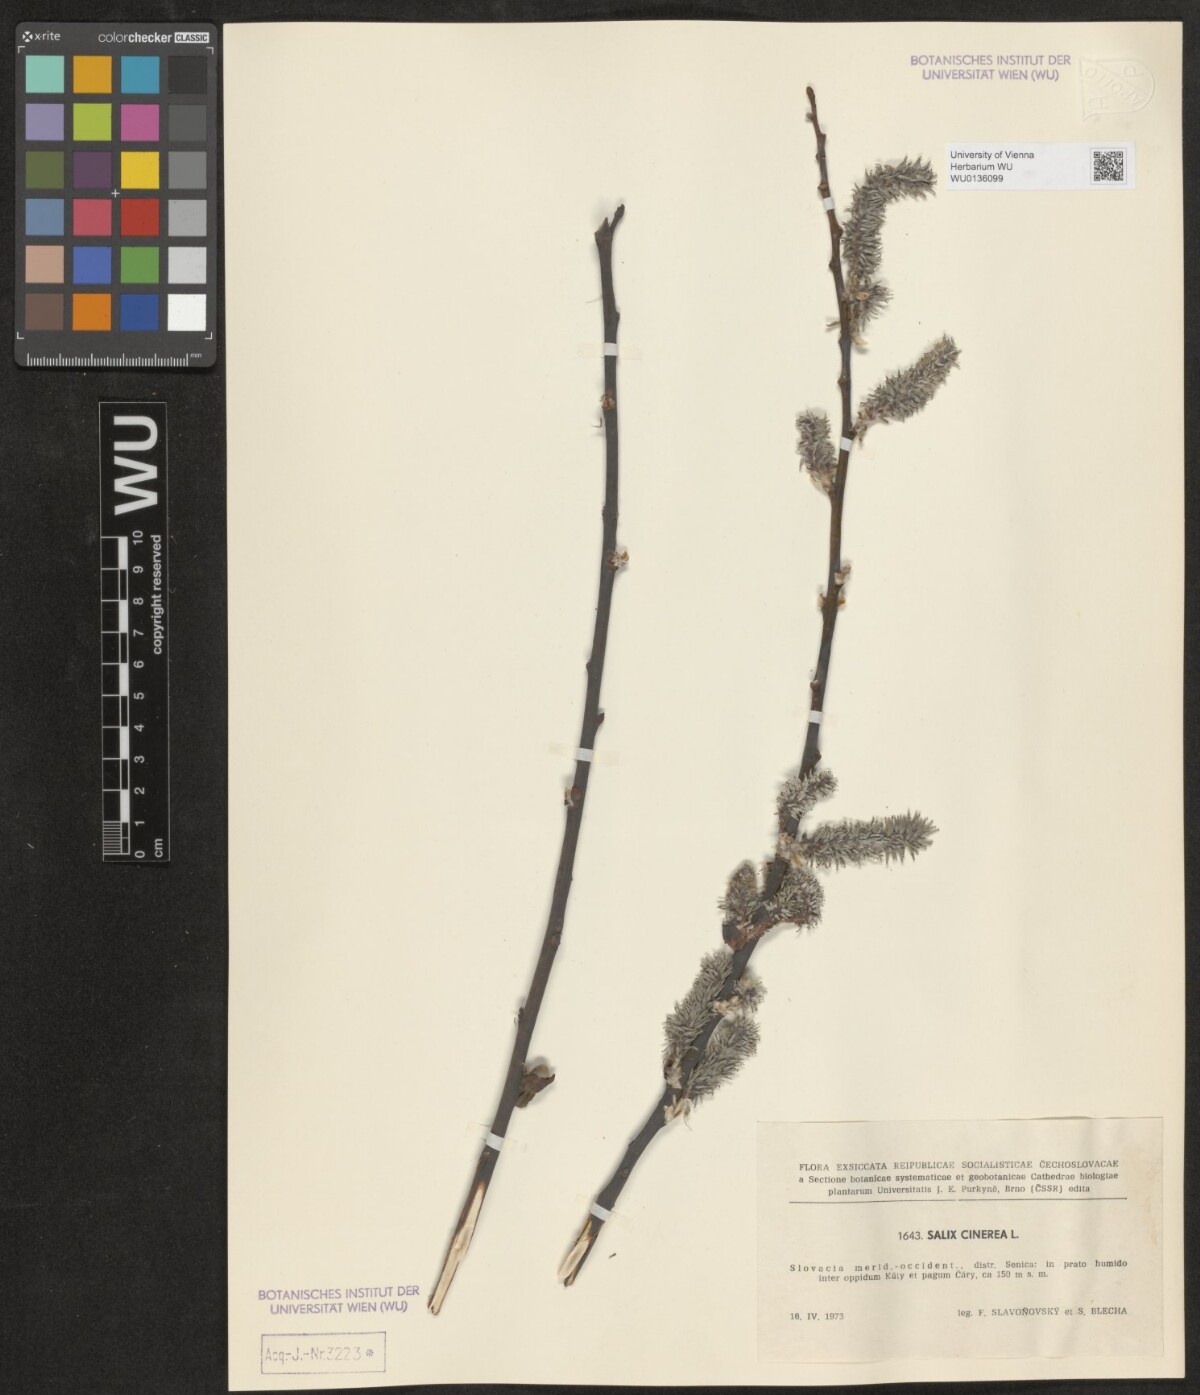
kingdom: Plantae
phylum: Tracheophyta
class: Magnoliopsida
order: Malpighiales
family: Salicaceae
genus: Salix
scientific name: Salix cinerea
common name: Common sallow
